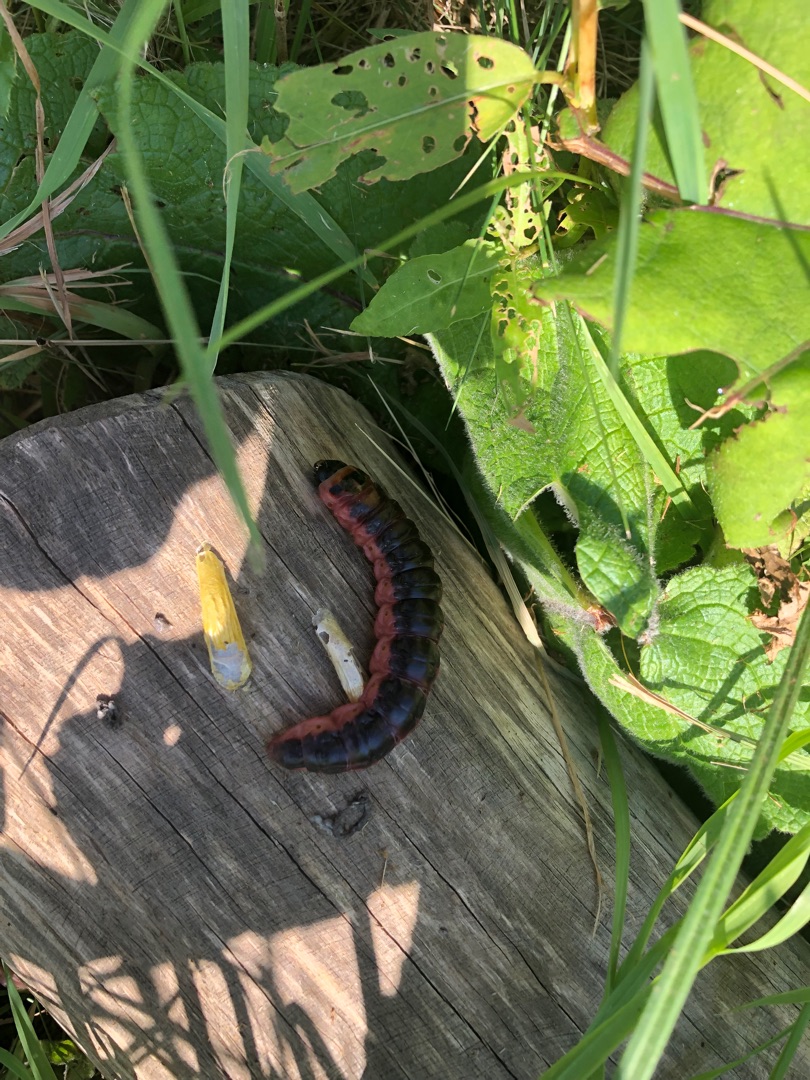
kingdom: Animalia
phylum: Arthropoda
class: Insecta
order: Lepidoptera
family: Cossidae
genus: Cossus
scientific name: Cossus cossus
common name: Pileborer
